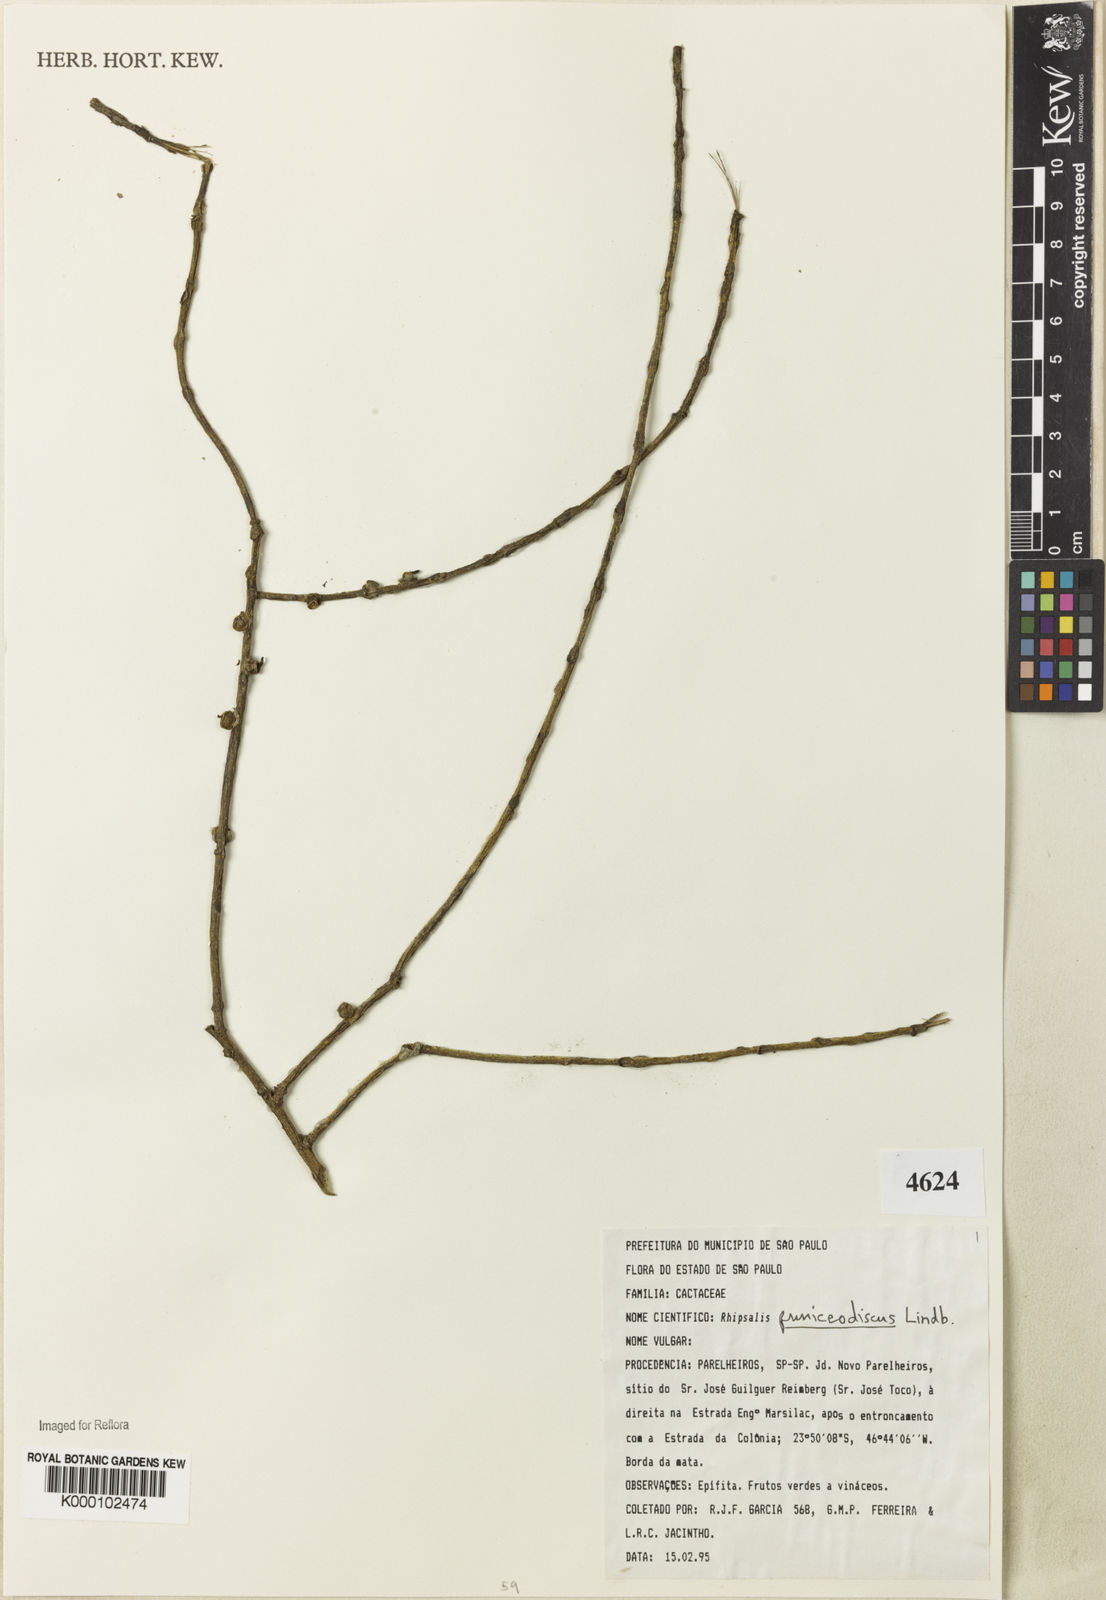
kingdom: Plantae
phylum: Tracheophyta
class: Magnoliopsida
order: Caryophyllales
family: Cactaceae
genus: Rhipsalis
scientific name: Rhipsalis puniceodiscus
